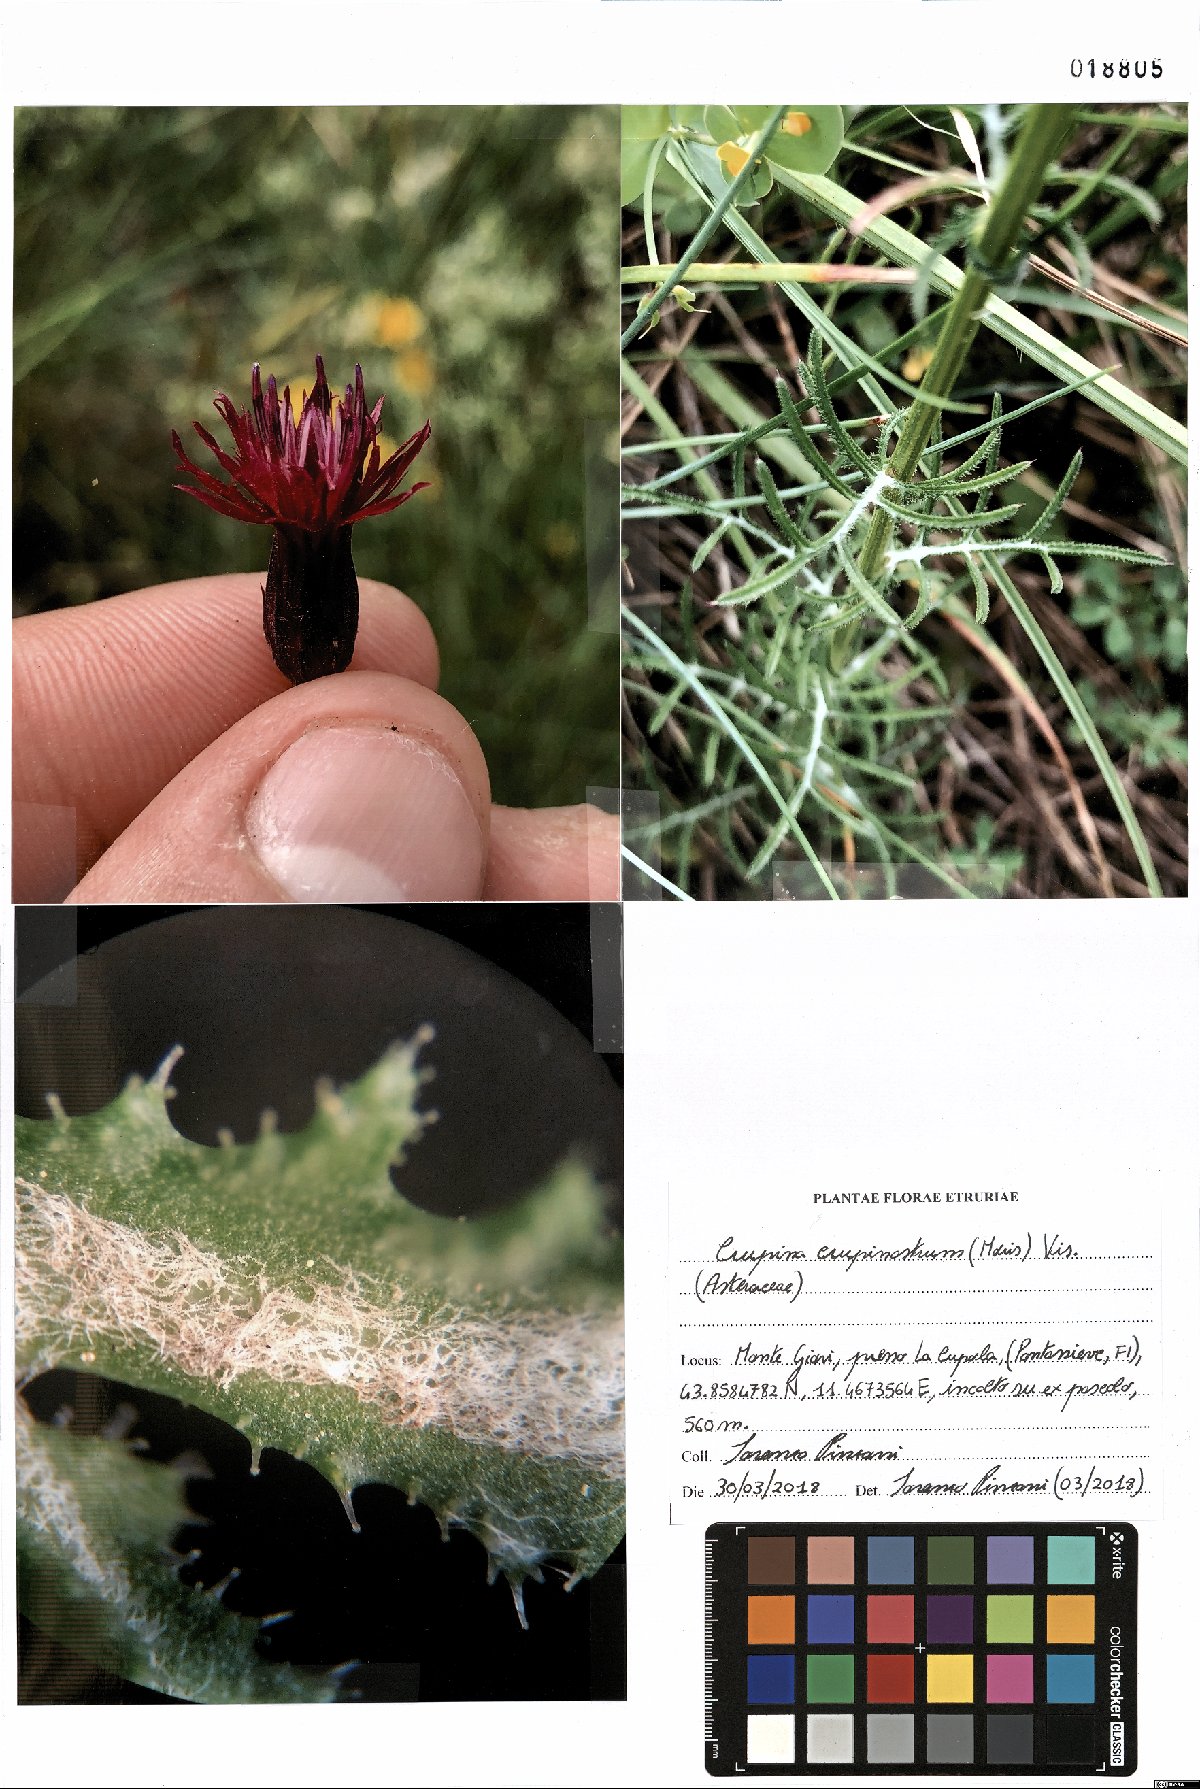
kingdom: Plantae
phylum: Tracheophyta
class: Magnoliopsida
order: Asterales
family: Asteraceae
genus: Crupina
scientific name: Crupina crupinastrum
